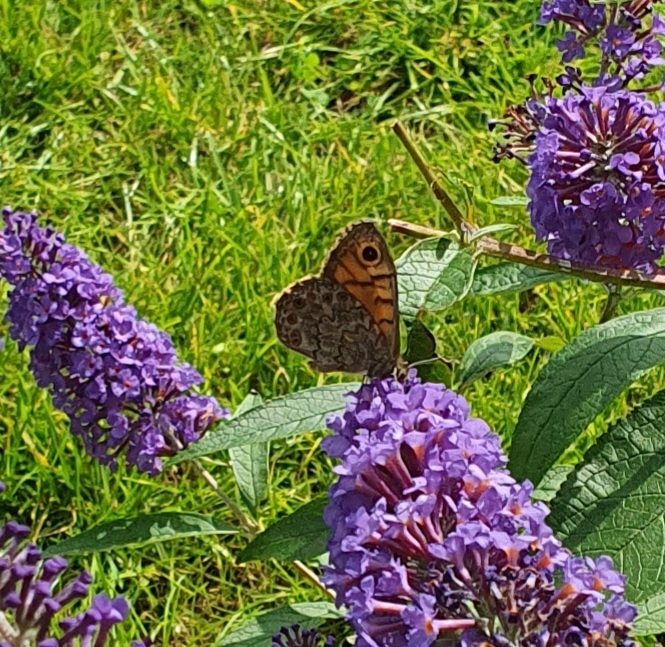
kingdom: Animalia
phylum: Arthropoda
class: Insecta
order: Lepidoptera
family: Nymphalidae
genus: Pararge
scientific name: Pararge Lasiommata megera
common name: Vejrandøje
